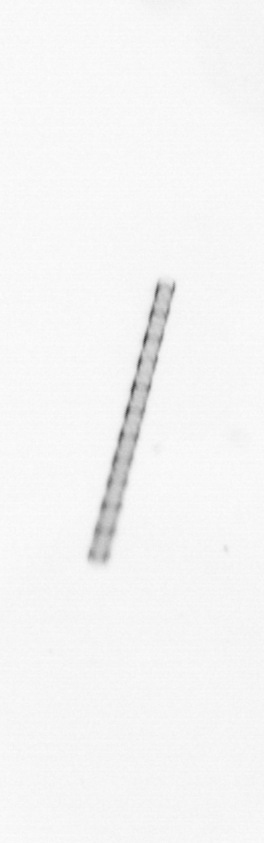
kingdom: Chromista
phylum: Ochrophyta
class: Bacillariophyceae
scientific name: Bacillariophyceae
